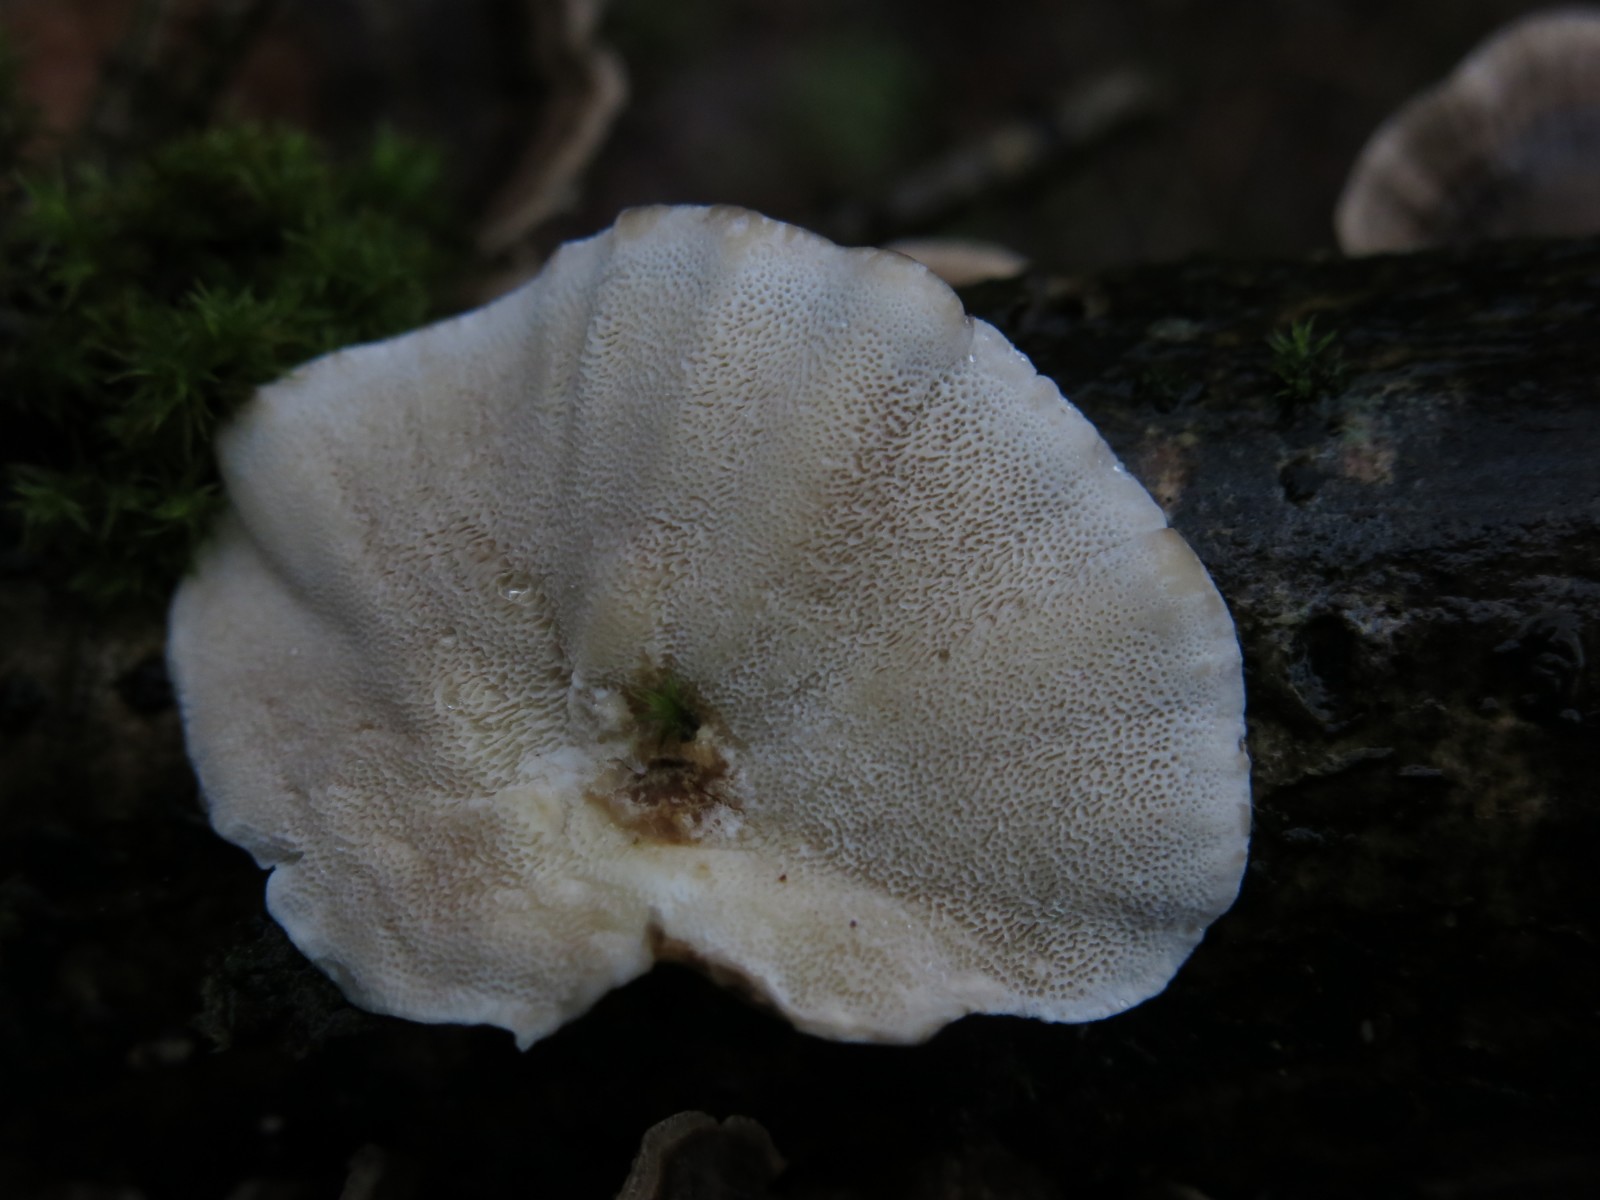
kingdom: Fungi
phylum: Basidiomycota
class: Agaricomycetes
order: Polyporales
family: Polyporaceae
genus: Trametes
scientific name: Trametes versicolor
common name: broget læderporesvamp
